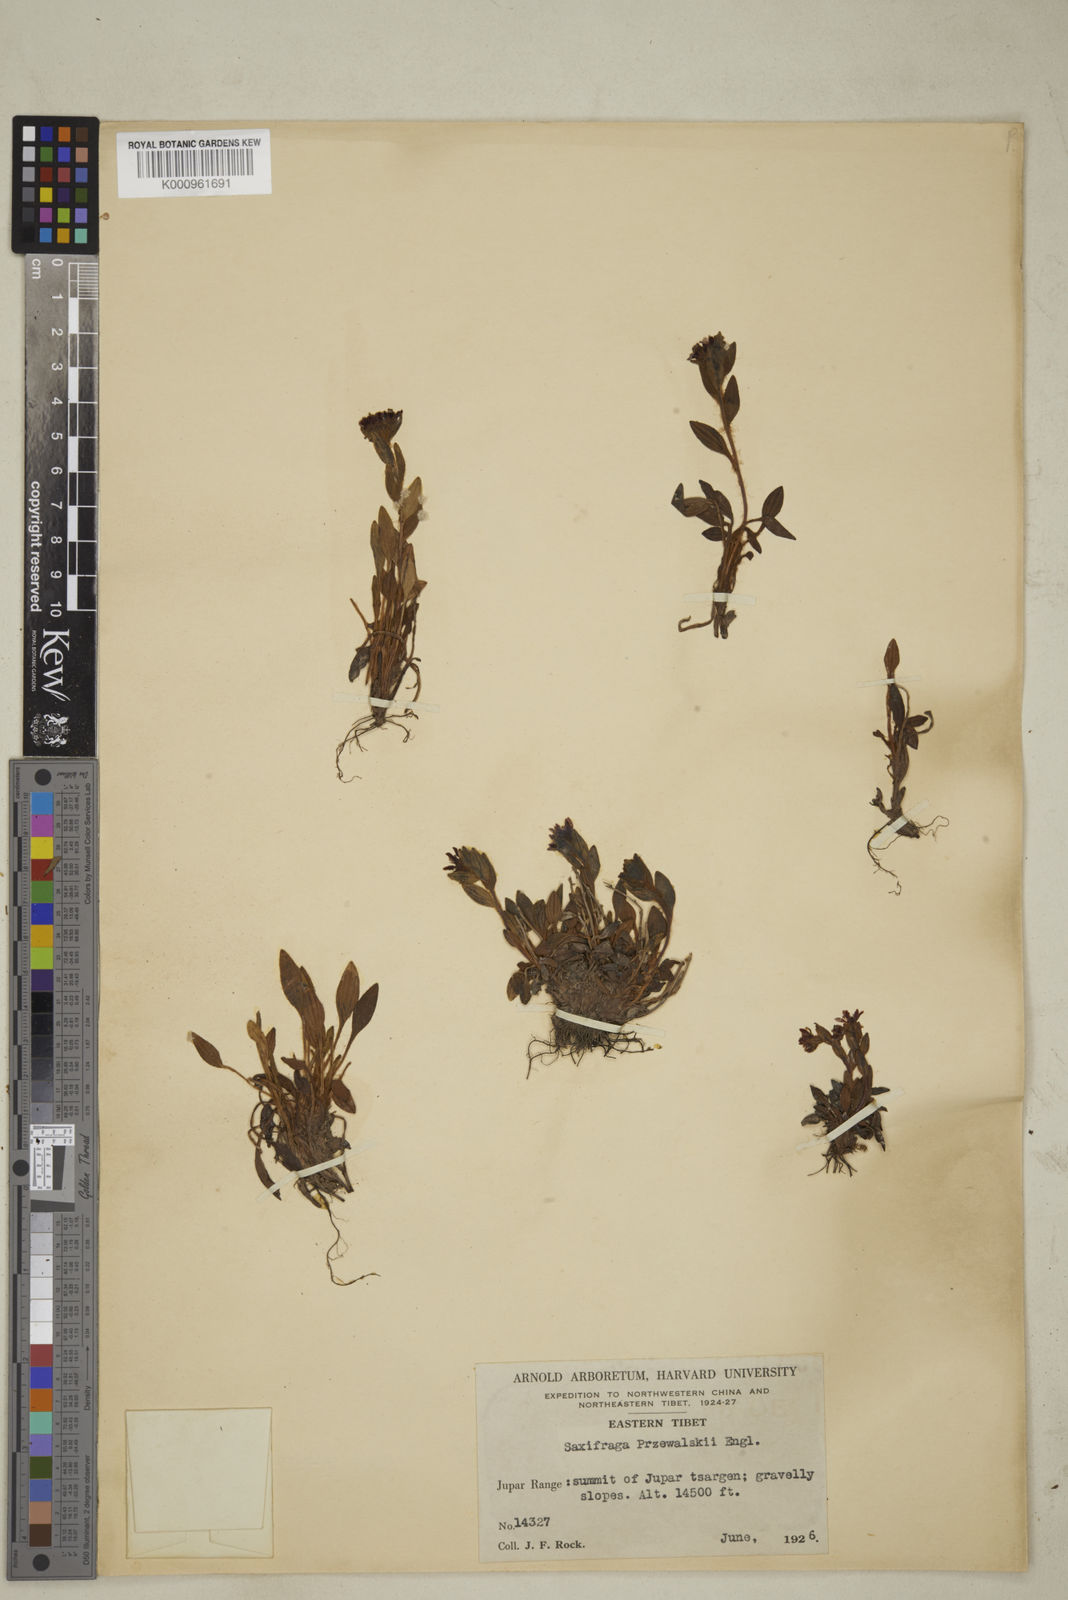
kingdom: Plantae
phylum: Tracheophyta
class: Magnoliopsida
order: Saxifragales
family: Saxifragaceae
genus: Saxifraga
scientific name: Saxifraga
